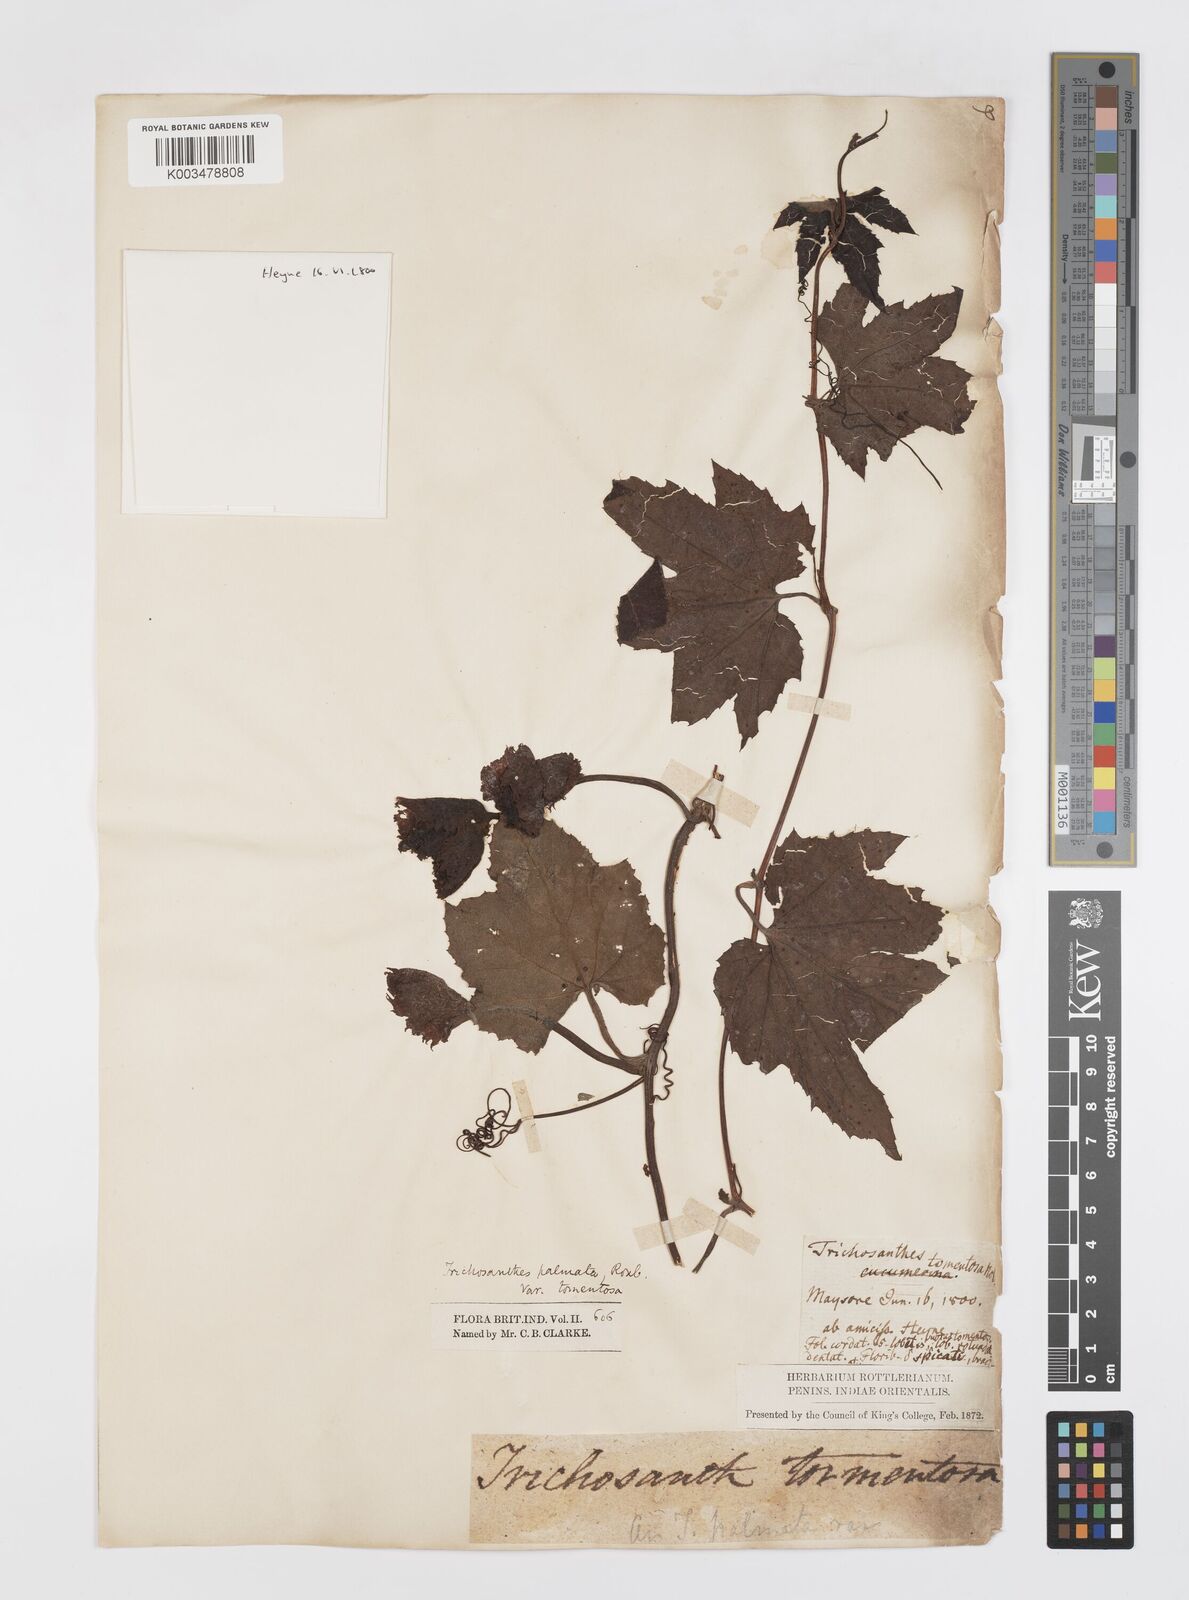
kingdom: Plantae
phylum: Tracheophyta
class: Magnoliopsida
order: Cucurbitales
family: Cucurbitaceae
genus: Trichosanthes
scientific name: Trichosanthes anaimalaiensis
